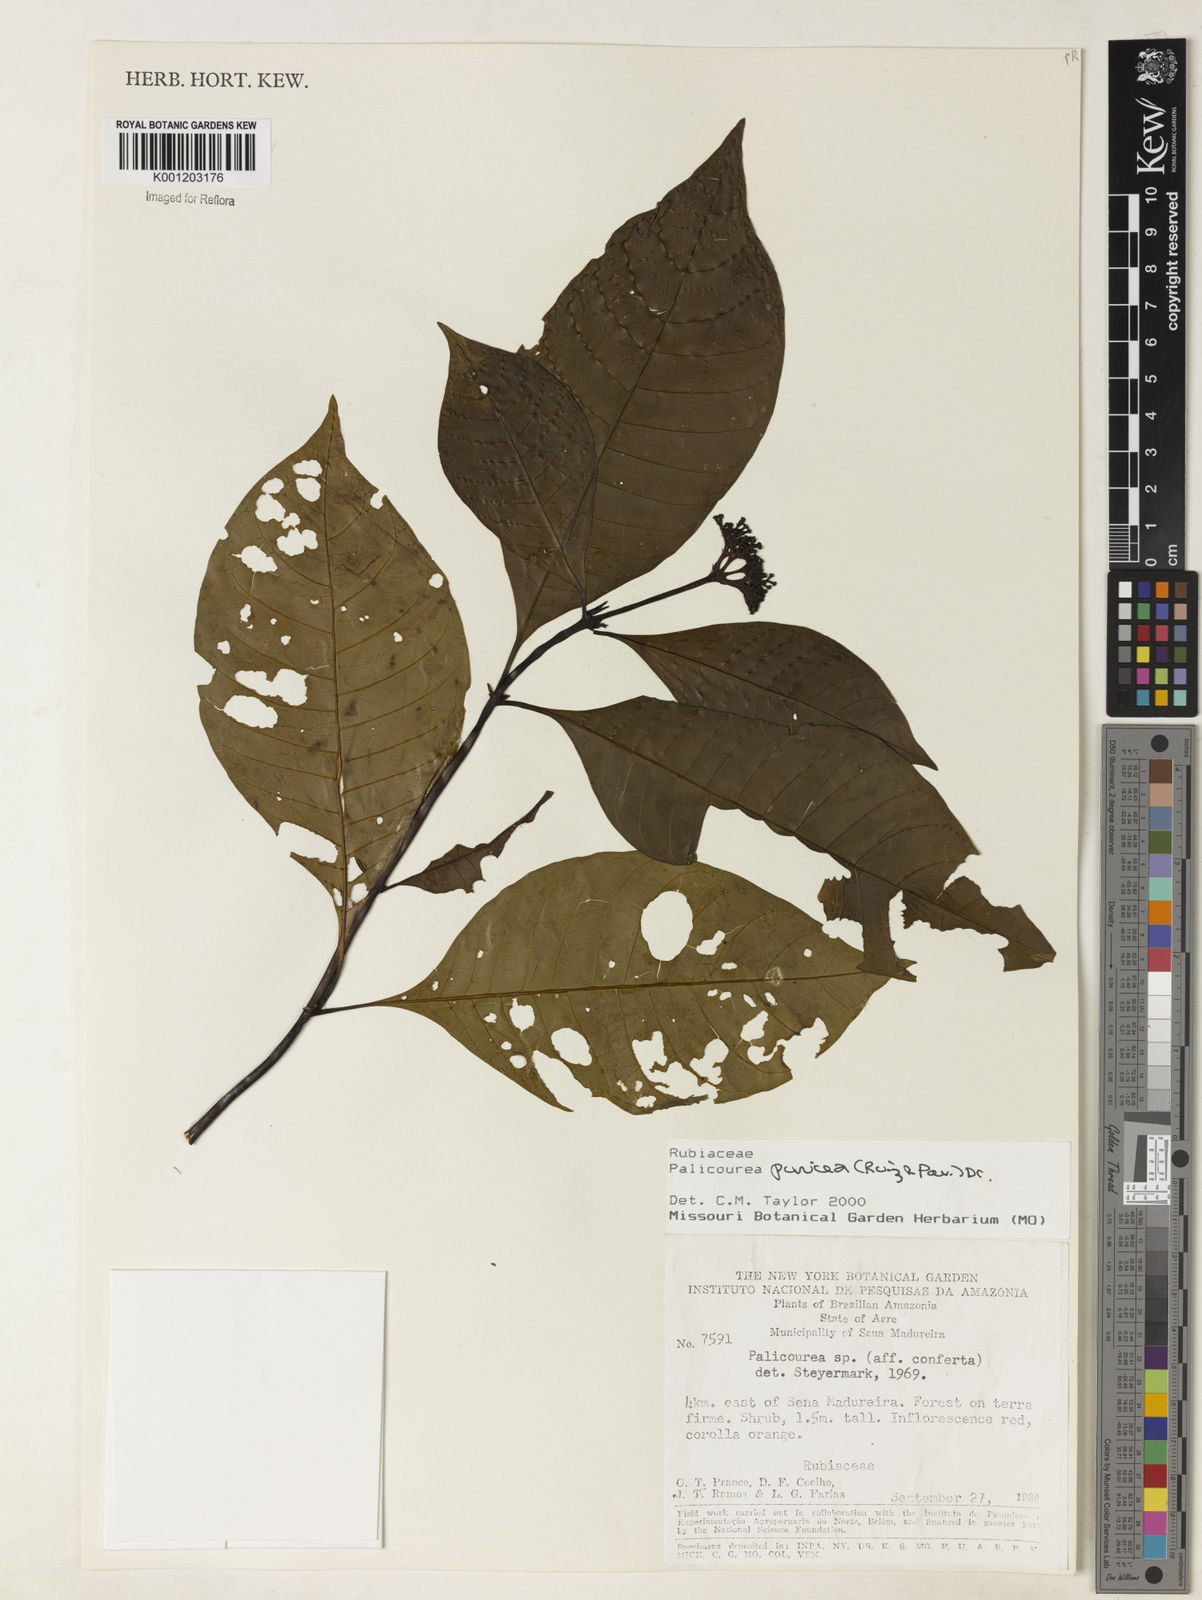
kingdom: Plantae
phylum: Tracheophyta
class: Magnoliopsida
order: Gentianales
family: Rubiaceae
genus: Palicourea
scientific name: Palicourea punicea
